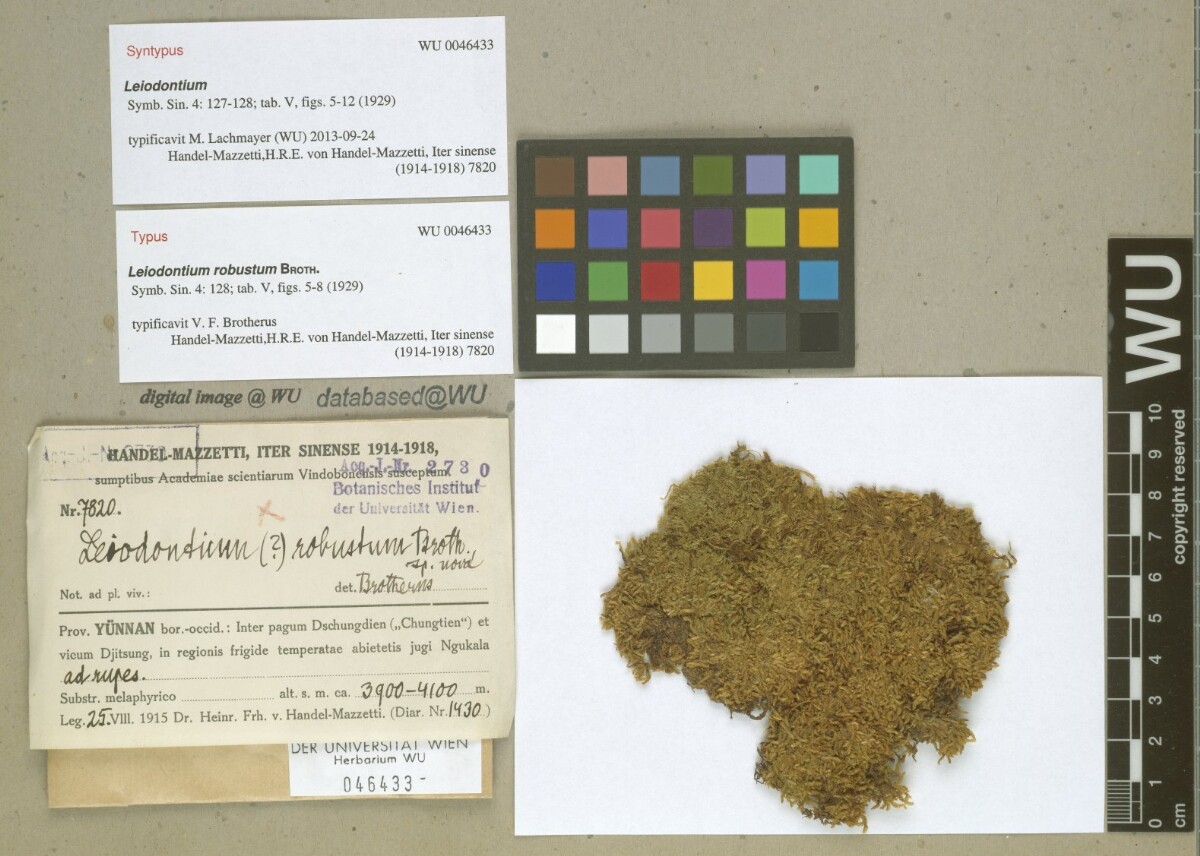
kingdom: Plantae
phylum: Bryophyta
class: Bryopsida
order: Hypnales
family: Hypnaceae
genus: Leiodontium
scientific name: Leiodontium robustum
